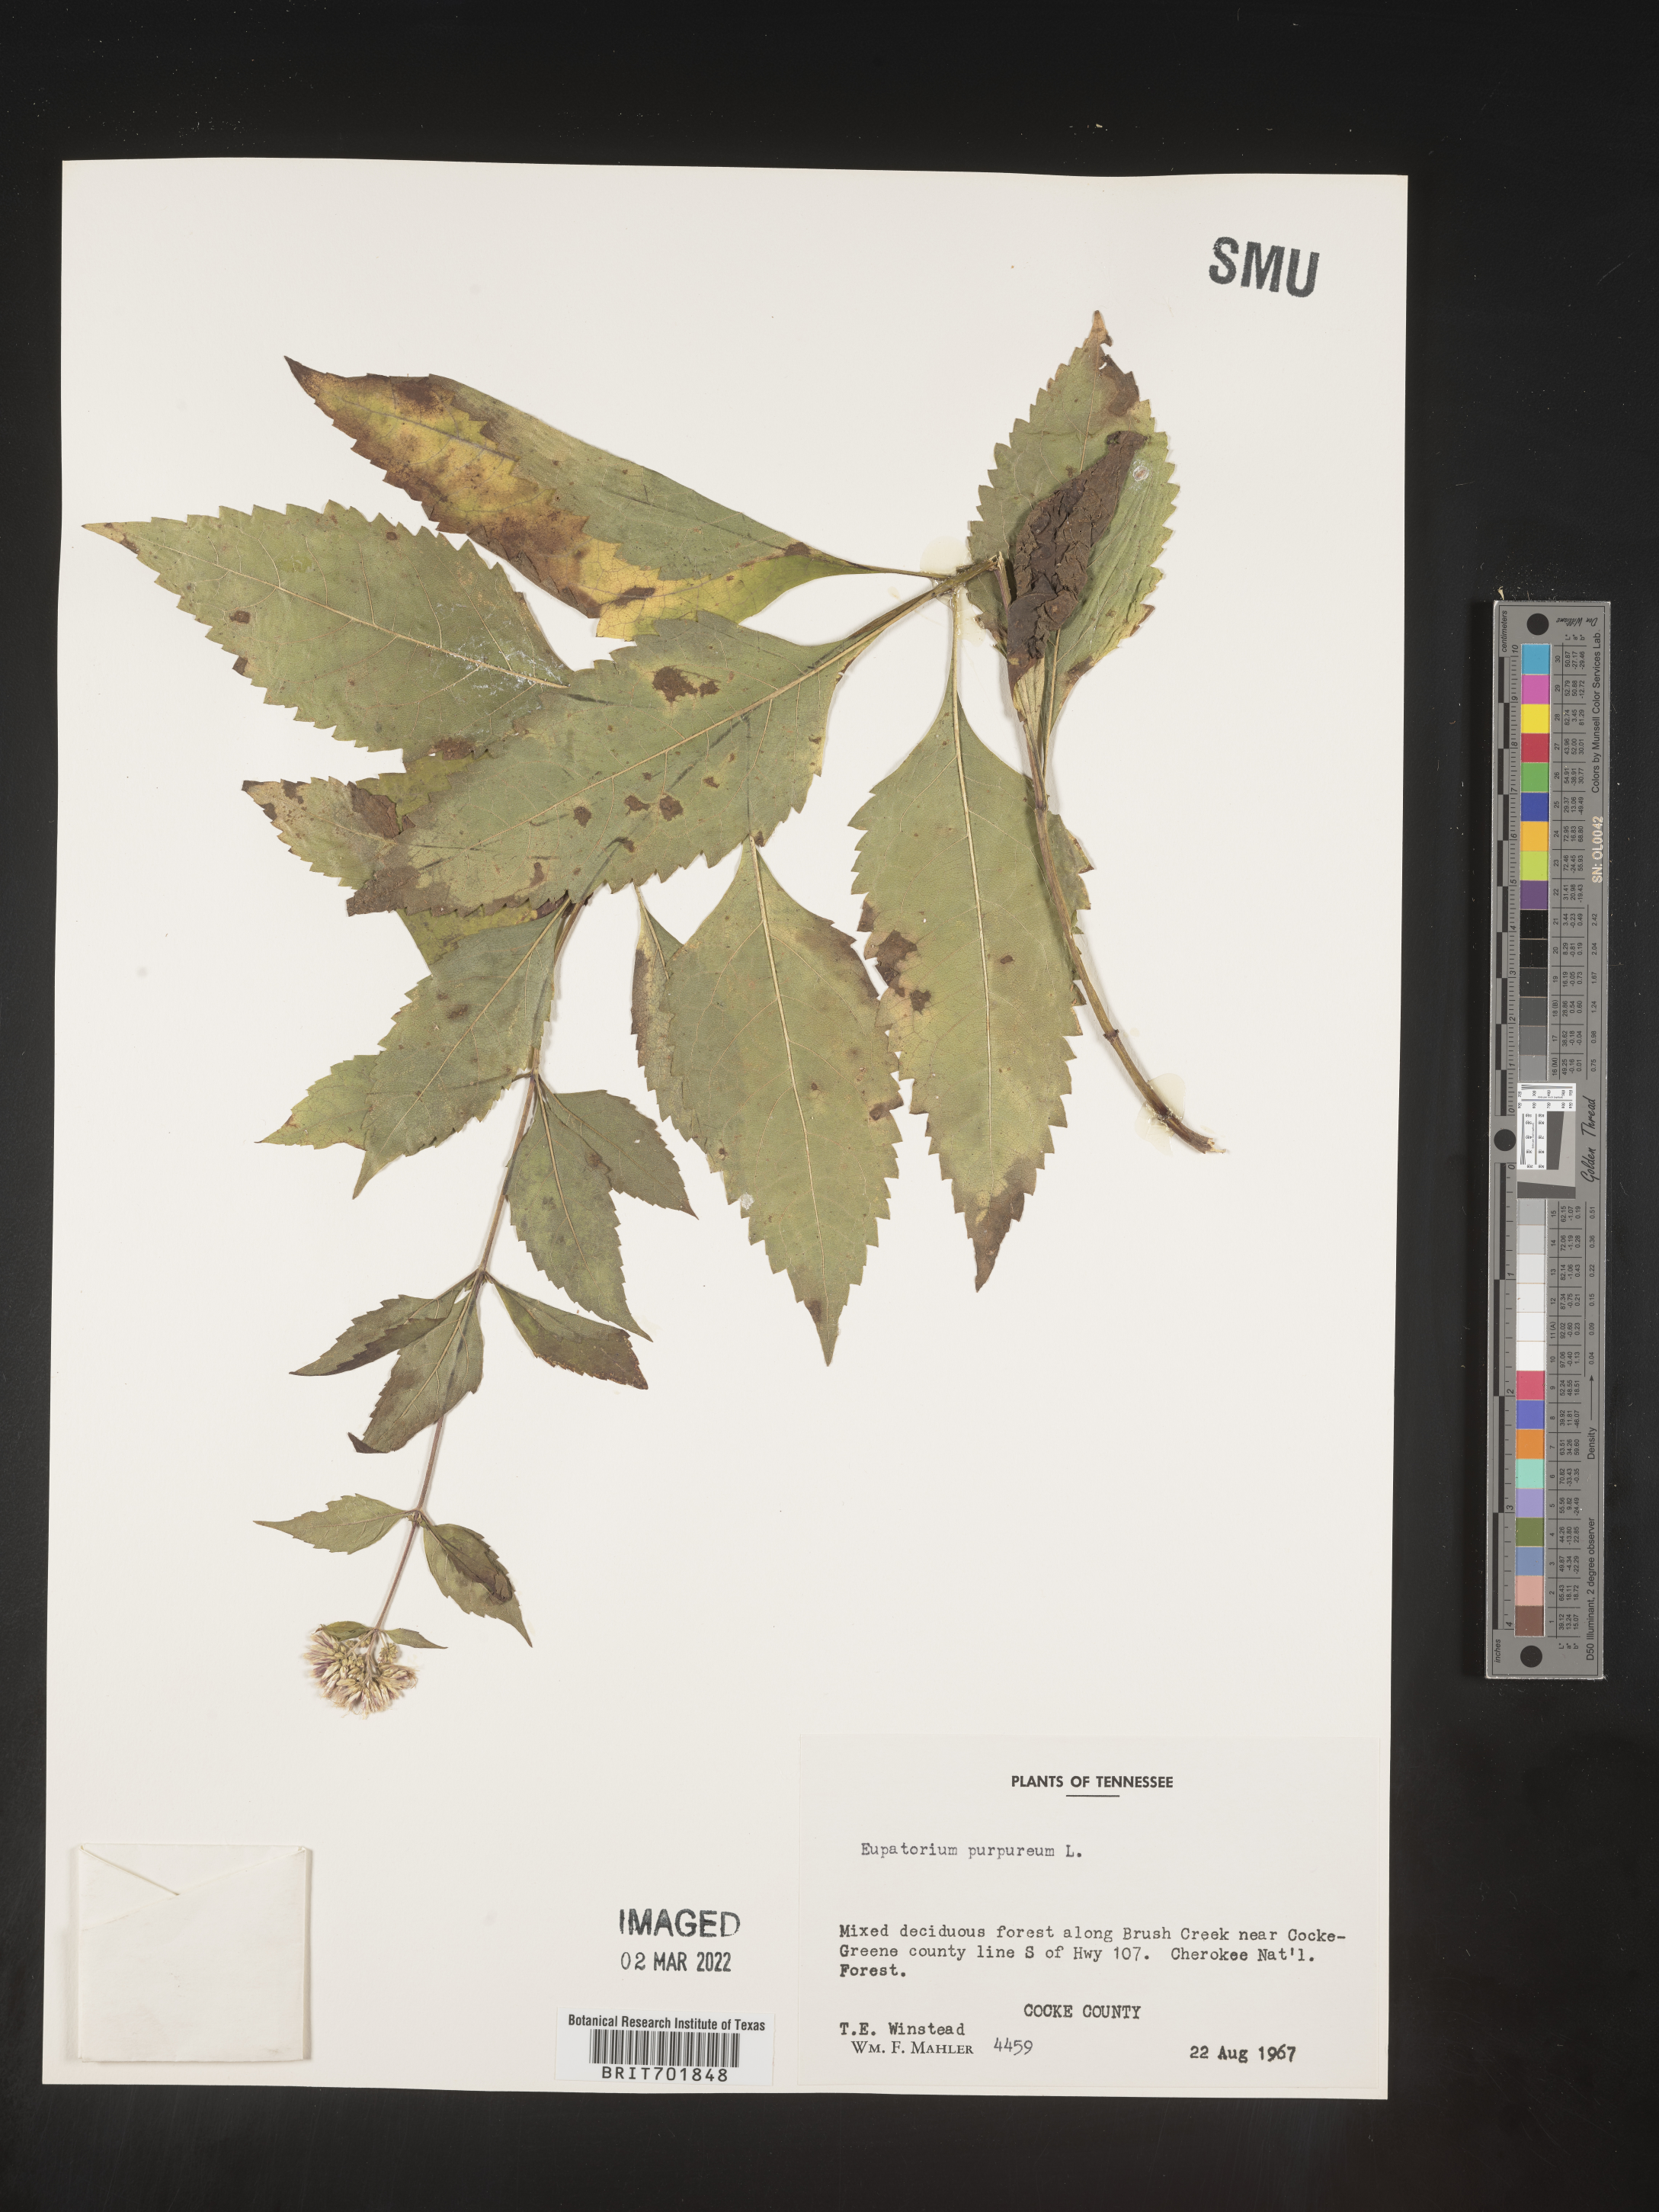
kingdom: Plantae
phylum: Tracheophyta
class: Magnoliopsida
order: Asterales
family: Asteraceae
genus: Eupatorium
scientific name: Eupatorium quaternum
